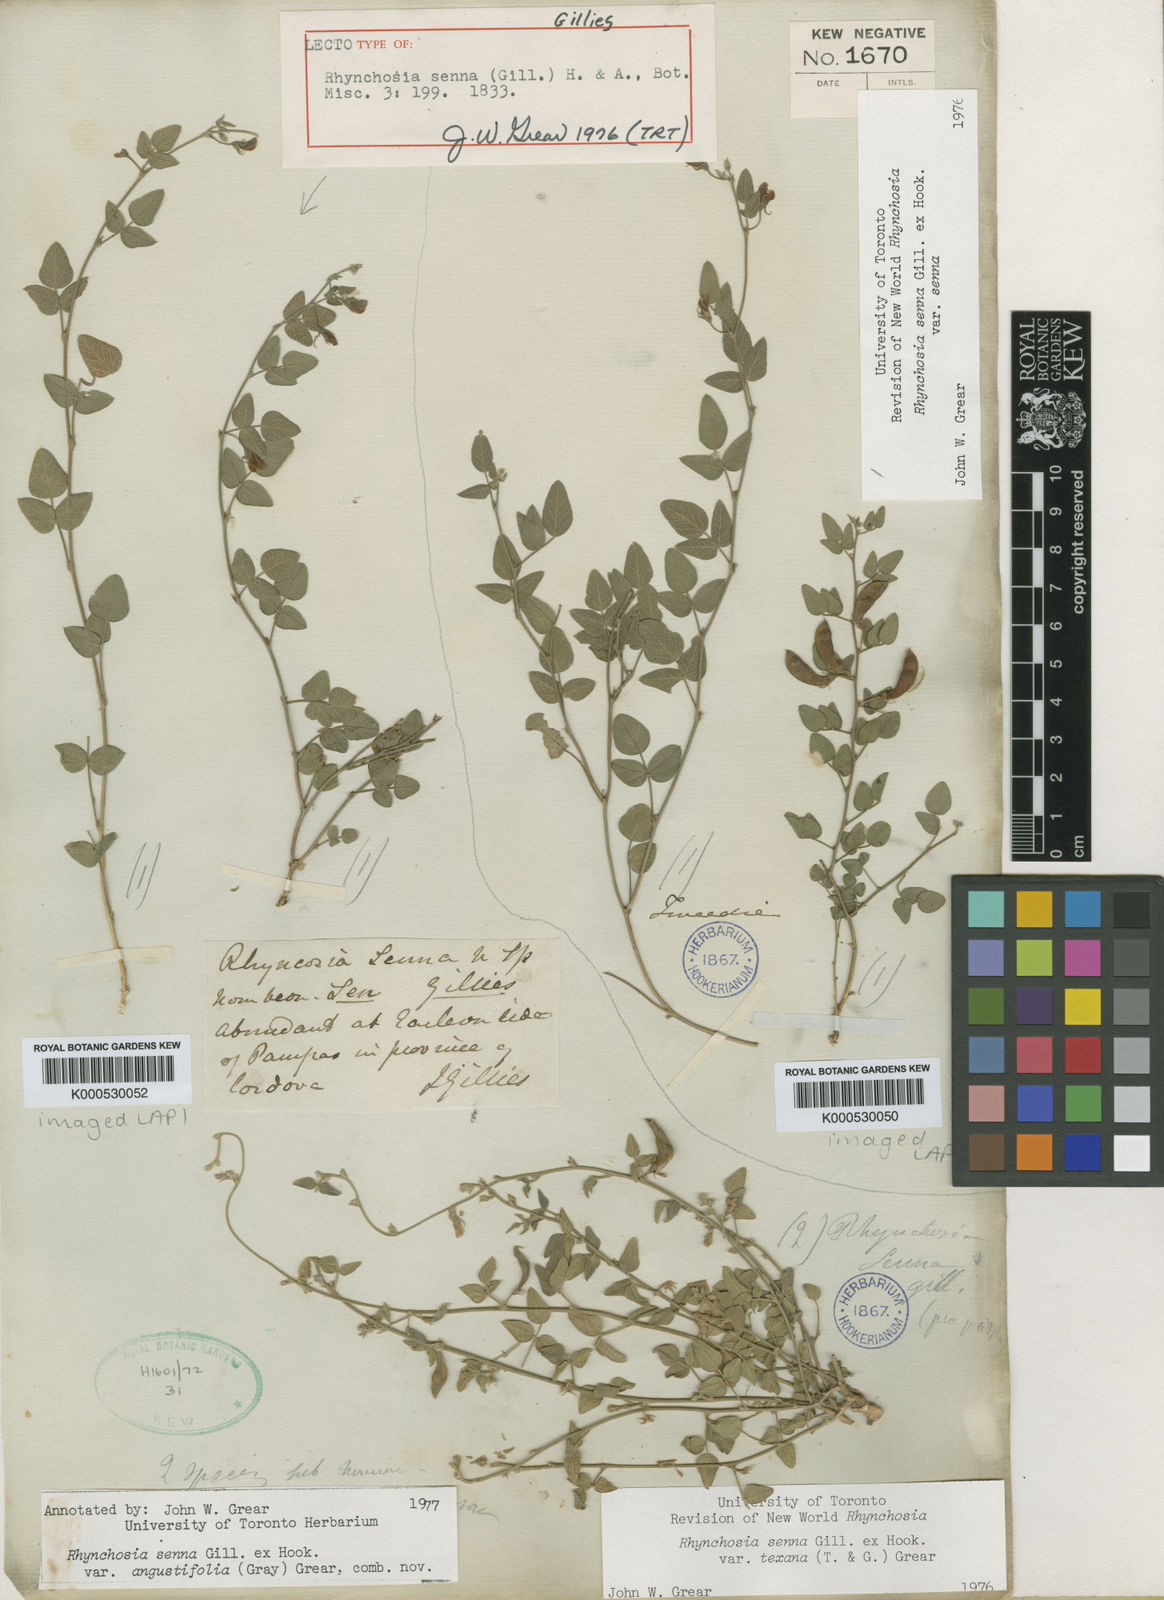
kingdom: Plantae
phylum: Tracheophyta
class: Magnoliopsida
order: Fabales
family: Fabaceae
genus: Rhynchosia
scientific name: Rhynchosia senna
